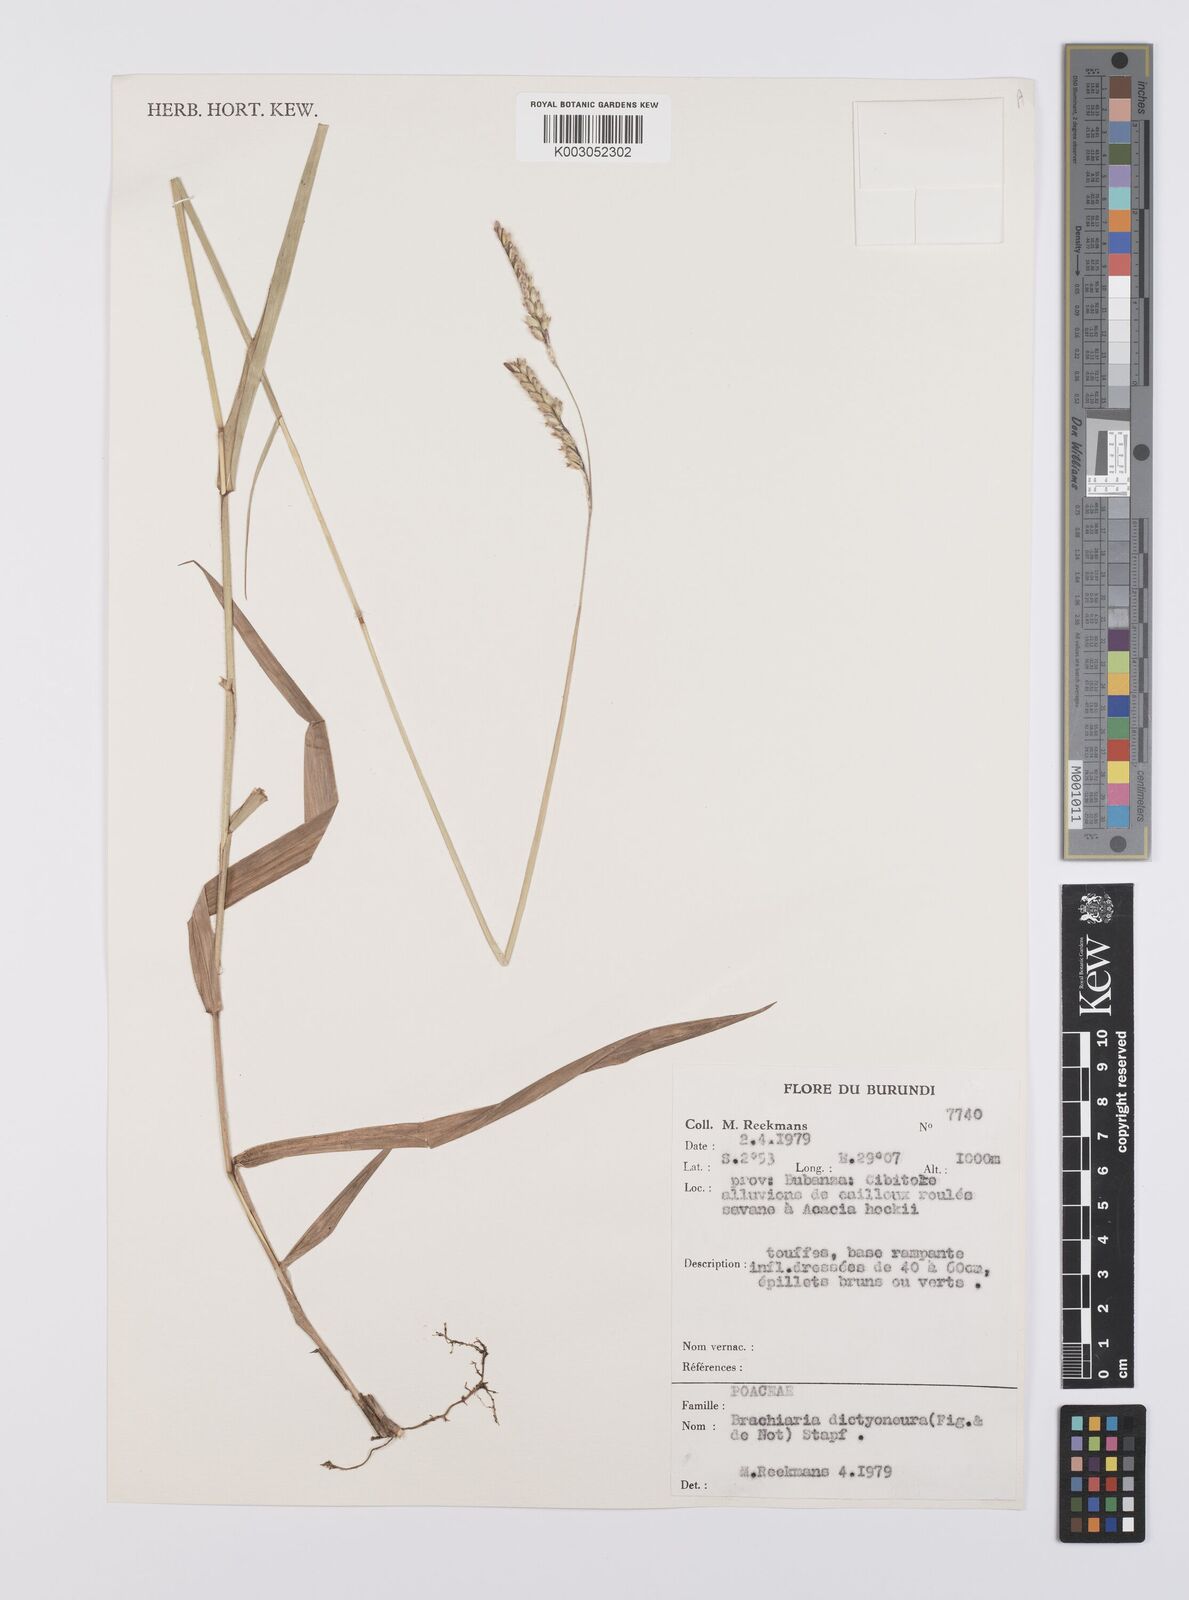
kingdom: Plantae
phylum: Tracheophyta
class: Liliopsida
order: Poales
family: Poaceae
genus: Urochloa
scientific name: Urochloa dictyoneura
